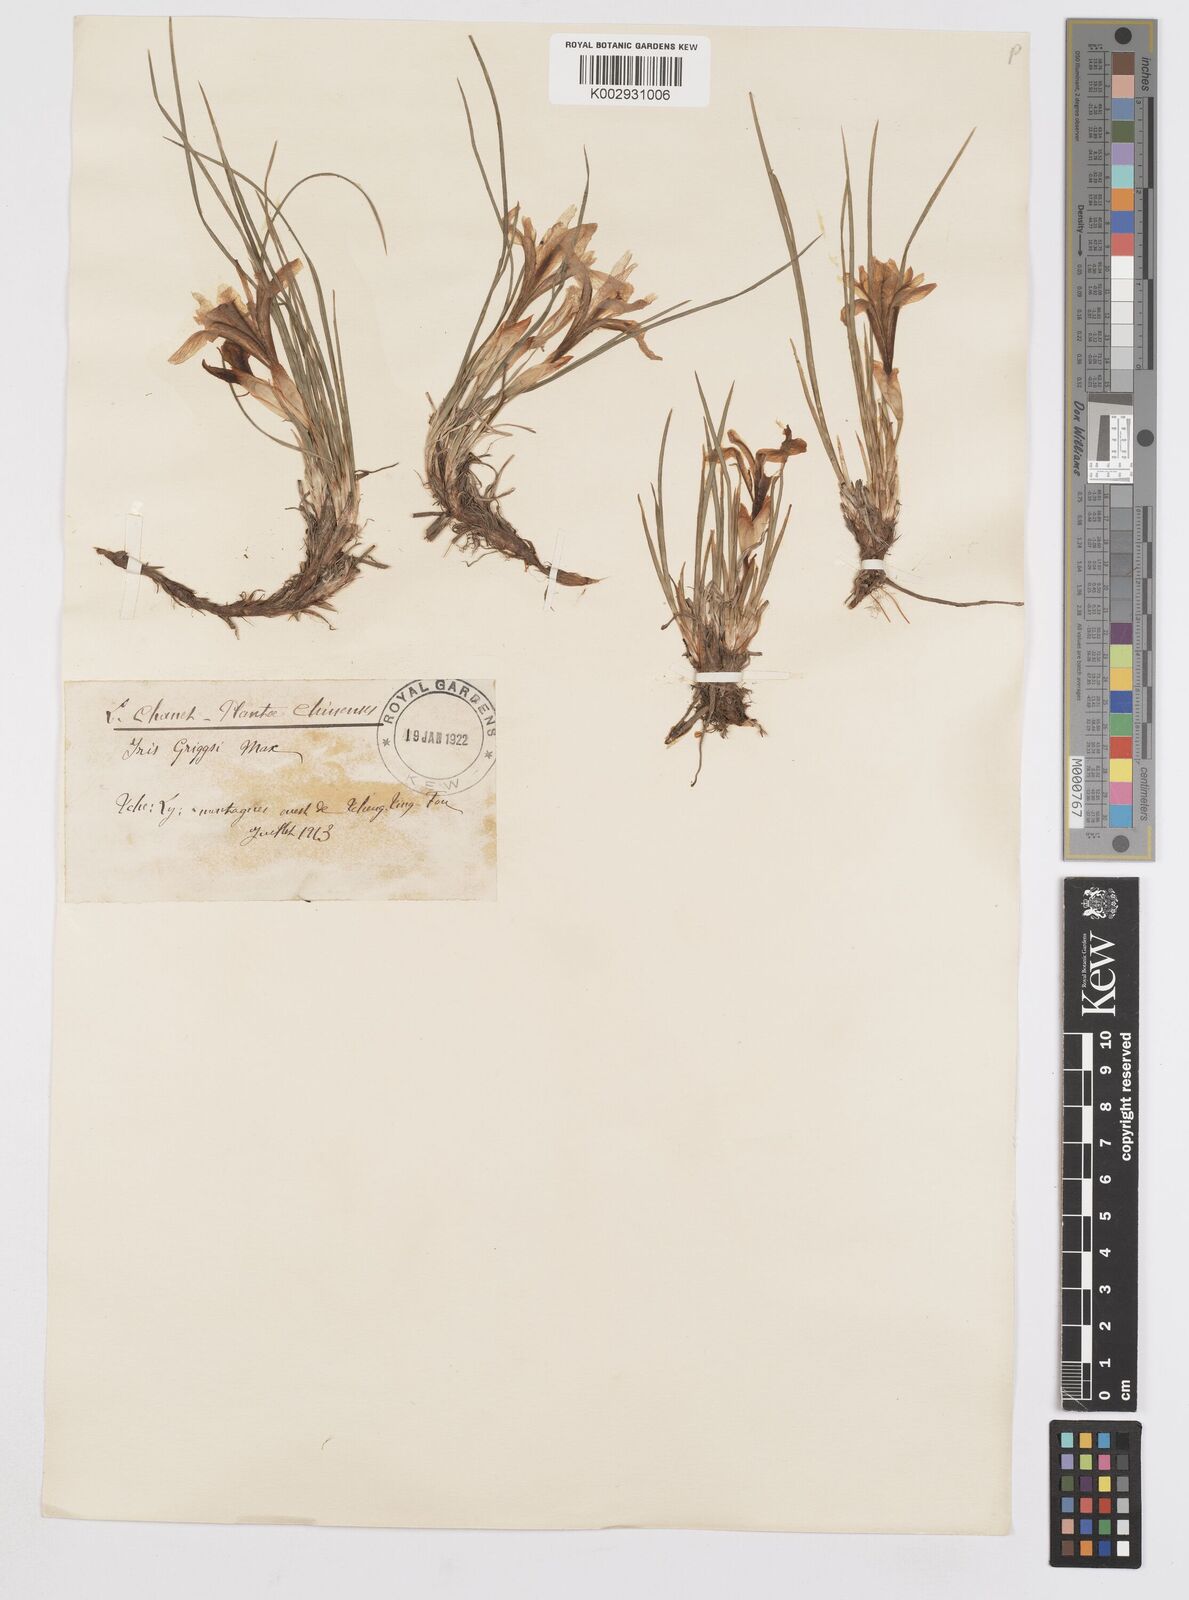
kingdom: Plantae
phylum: Tracheophyta
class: Liliopsida
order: Asparagales
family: Iridaceae
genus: Iris
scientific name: Iris uniflora
